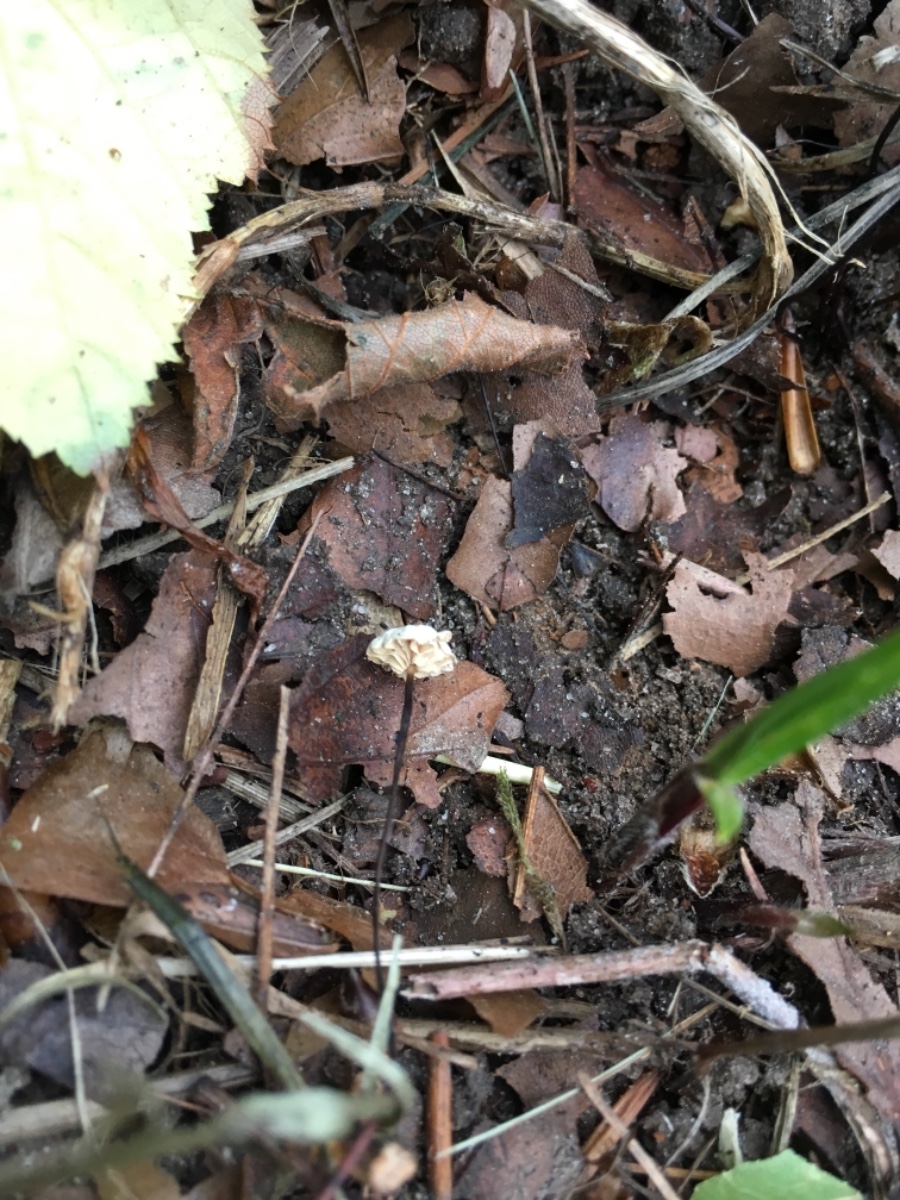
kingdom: Fungi
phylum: Basidiomycota
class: Agaricomycetes
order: Agaricales
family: Marasmiaceae
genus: Marasmius
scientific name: Marasmius rotula
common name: hjul-bruskhat
